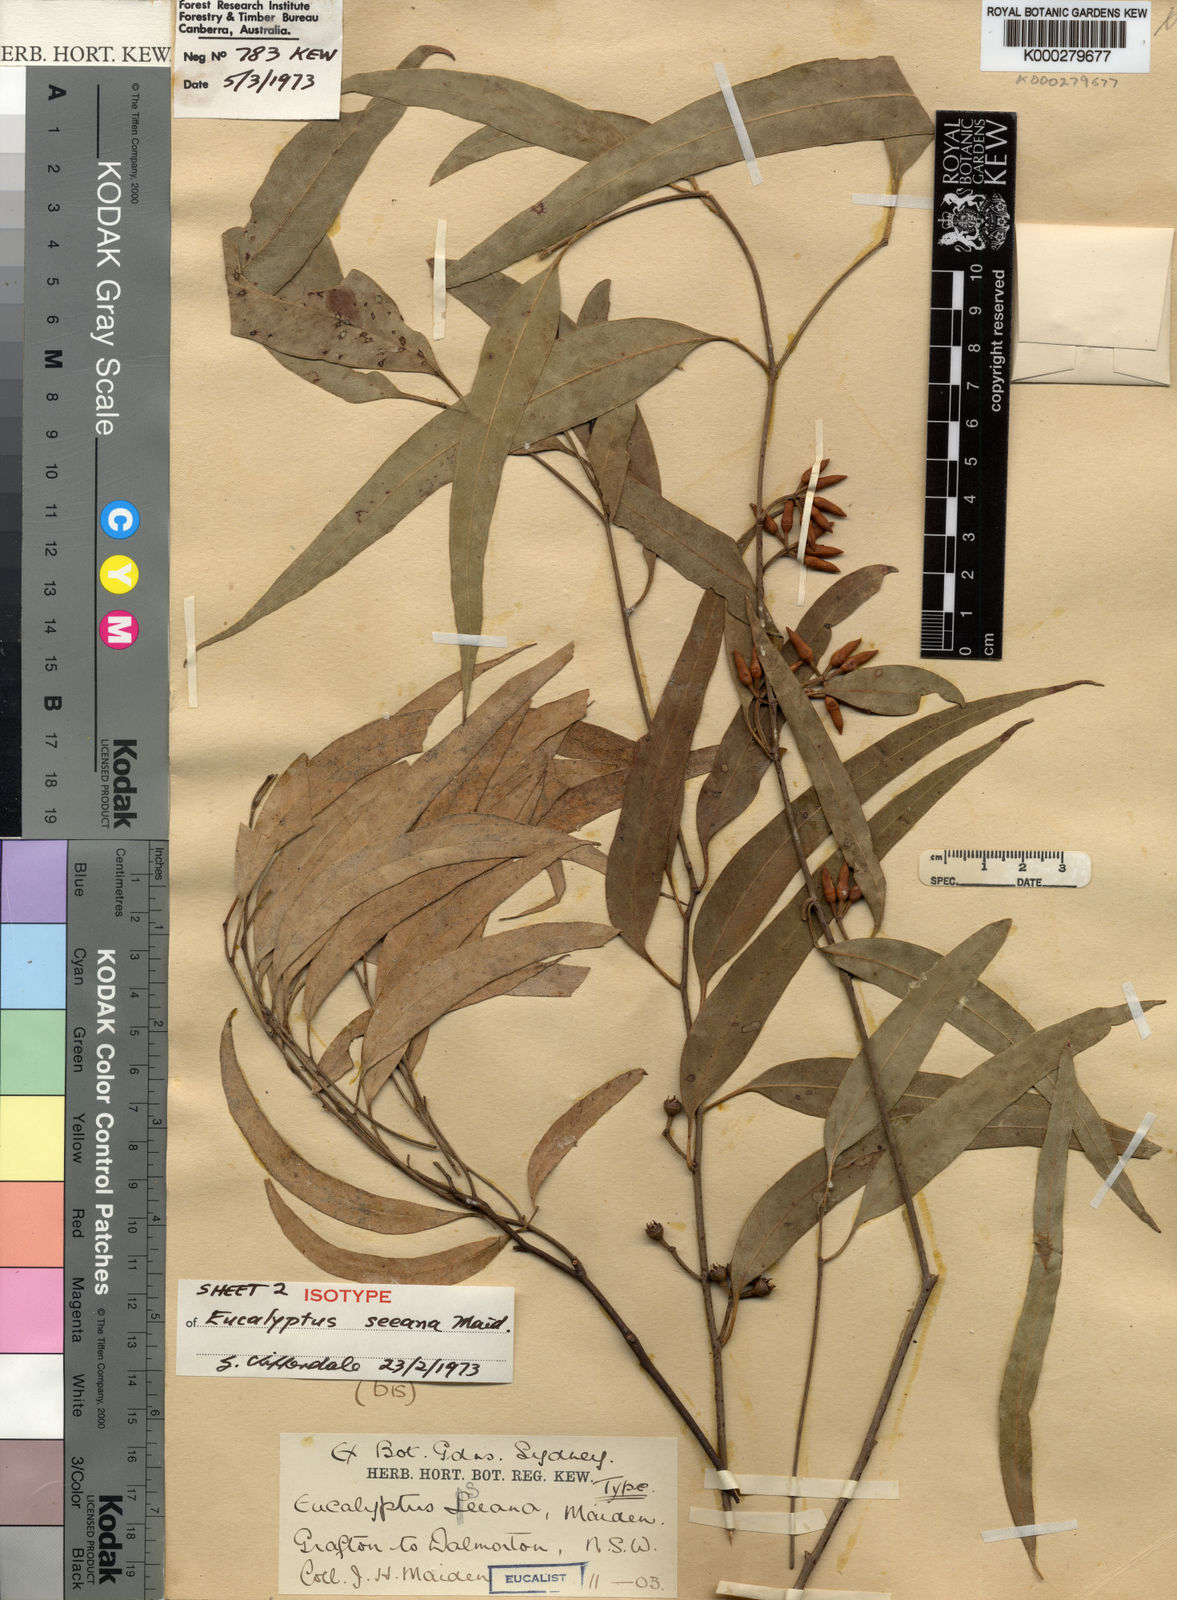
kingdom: Plantae
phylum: Tracheophyta
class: Magnoliopsida
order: Myrtales
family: Myrtaceae
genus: Eucalyptus
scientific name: Eucalyptus seeana
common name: Narrow-leaved red gum
